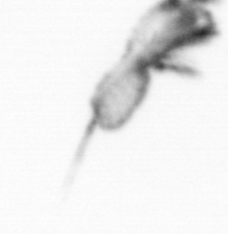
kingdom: Animalia
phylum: Arthropoda
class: Copepoda
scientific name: Copepoda
